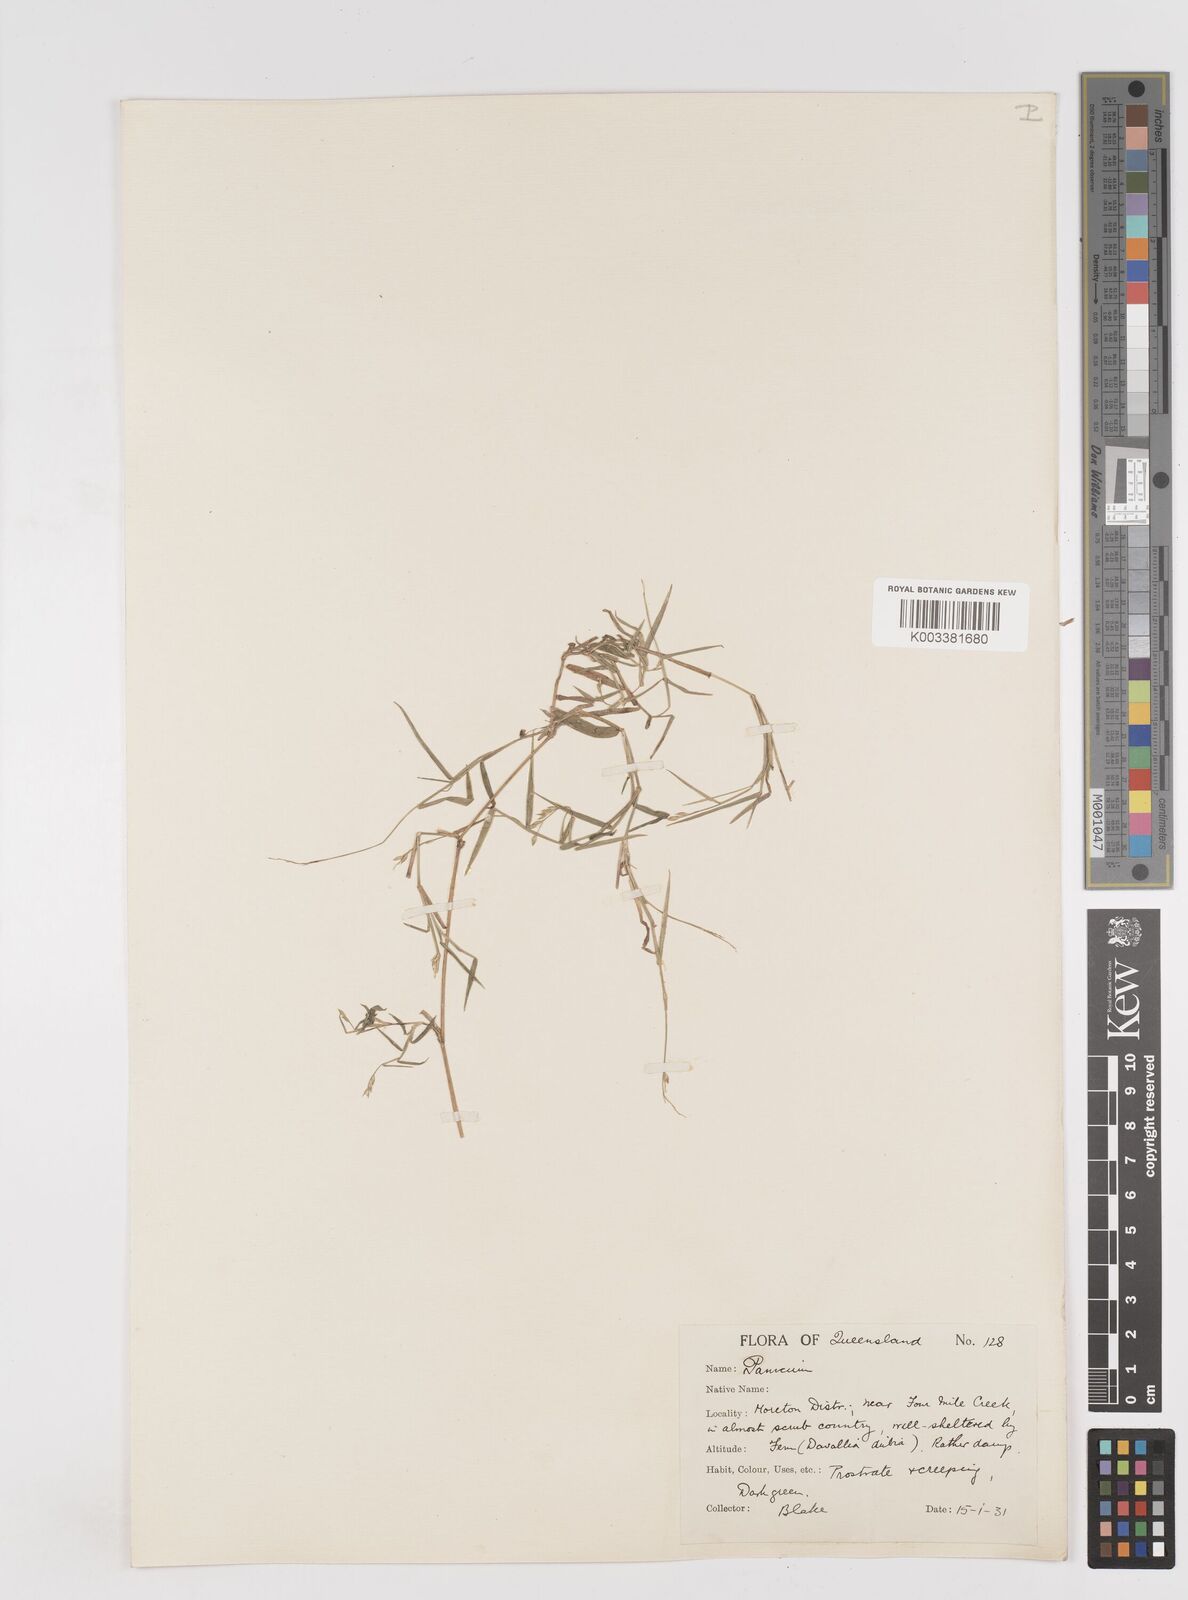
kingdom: Plantae
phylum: Tracheophyta
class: Liliopsida
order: Poales
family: Poaceae
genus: Entolasia
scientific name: Entolasia marginata
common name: Australian panicgrass
